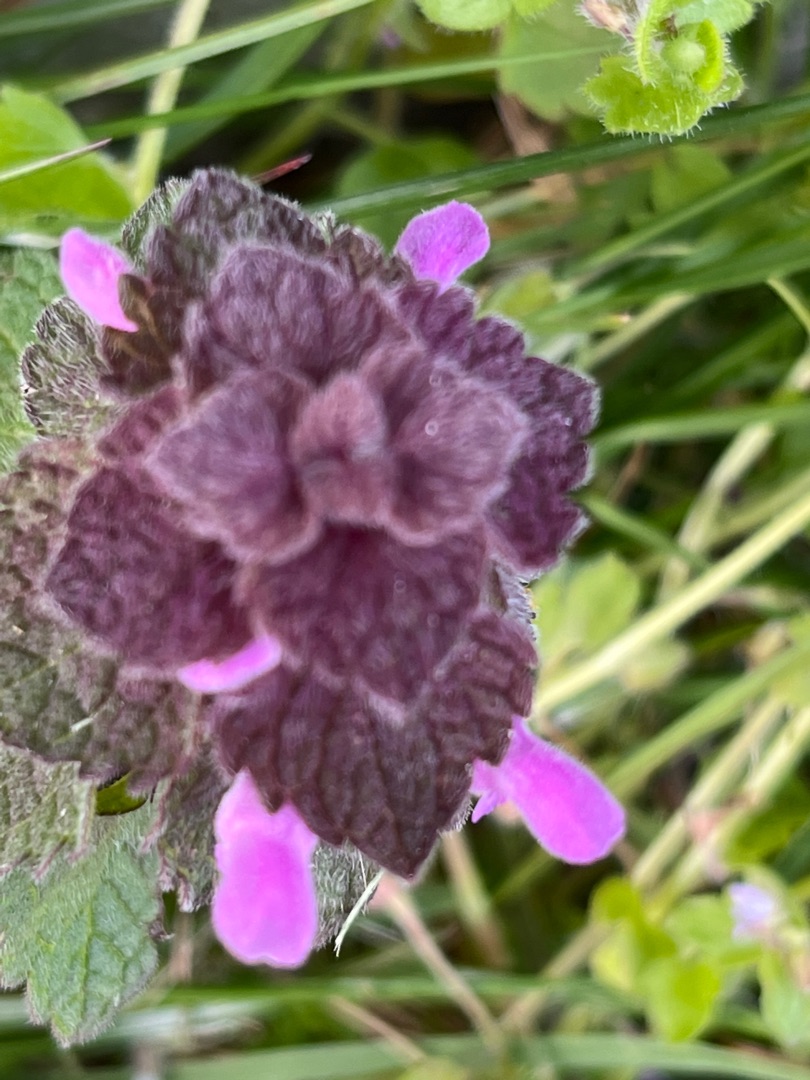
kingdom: Plantae
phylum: Tracheophyta
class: Magnoliopsida
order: Lamiales
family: Lamiaceae
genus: Lamium
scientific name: Lamium purpureum
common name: Rød tvetand
